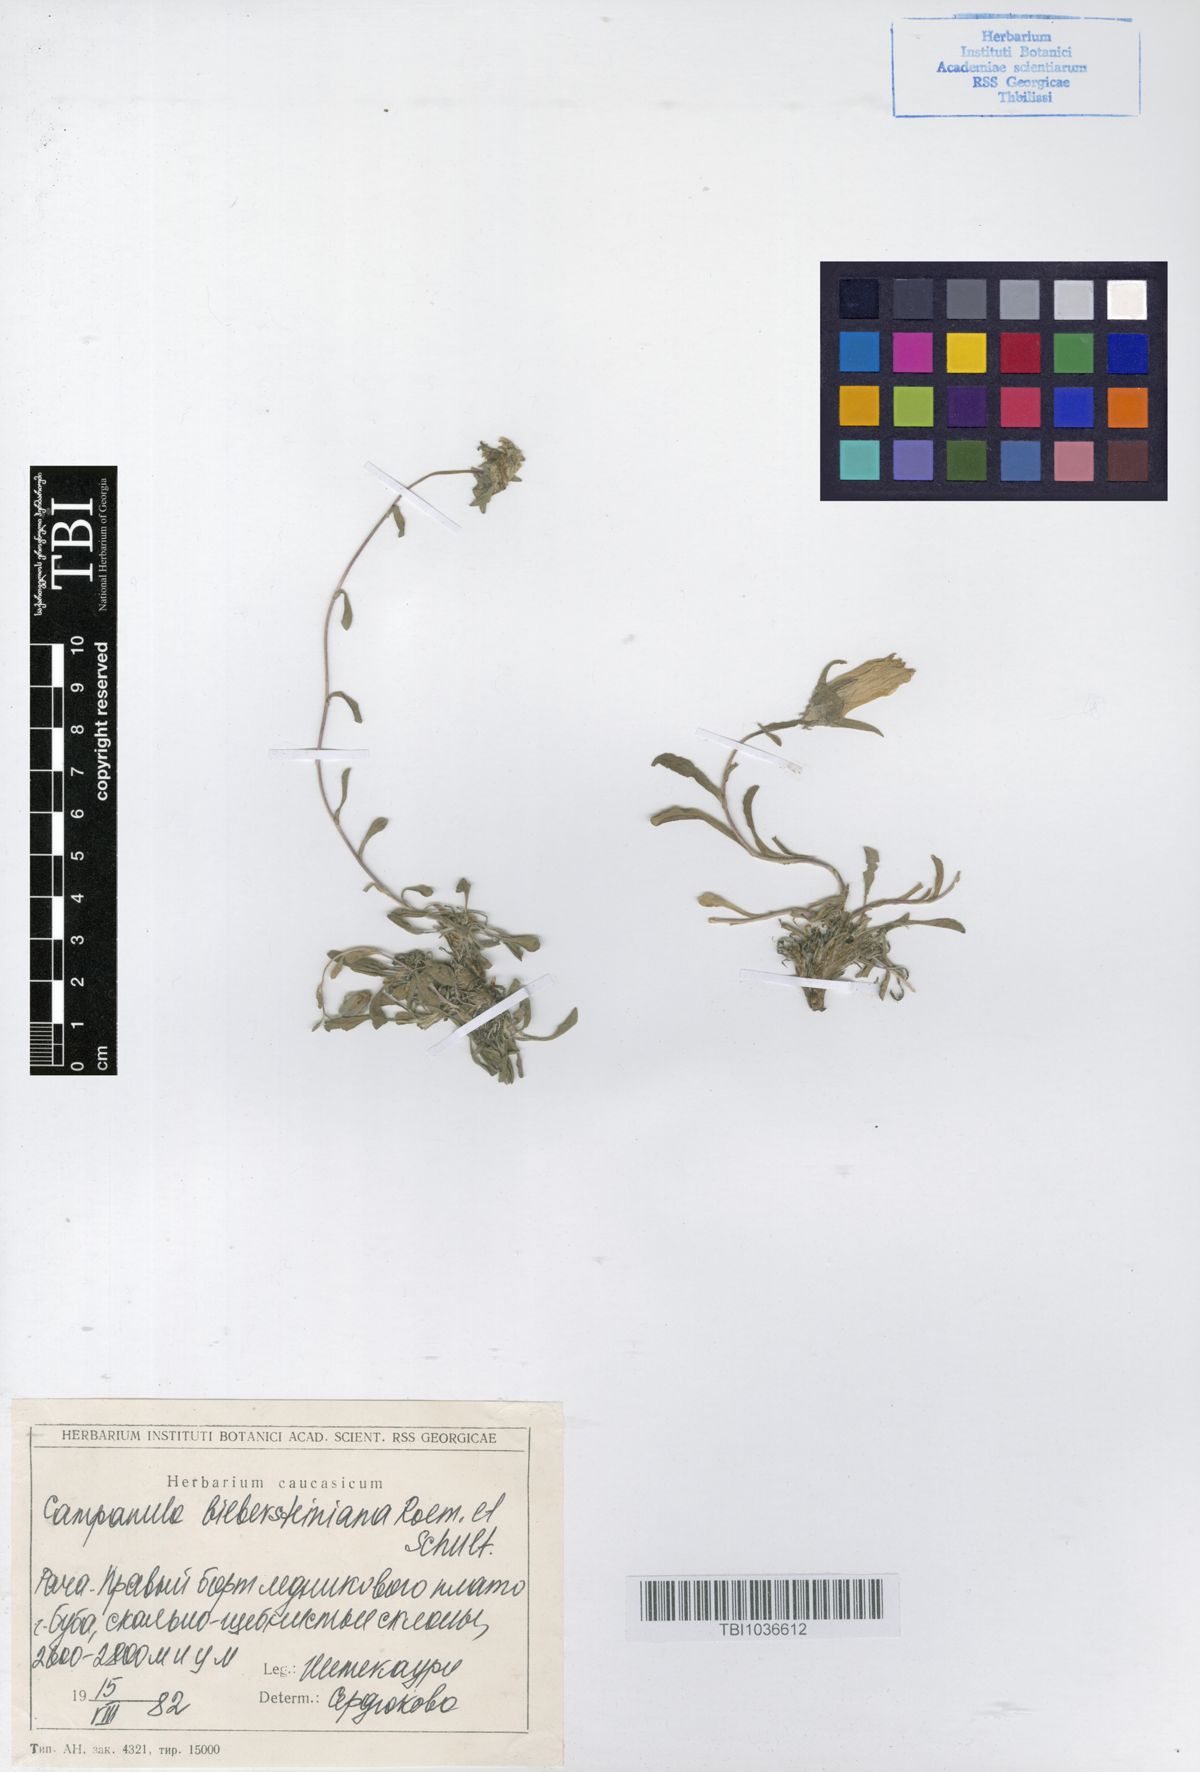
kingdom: Plantae
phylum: Tracheophyta
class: Magnoliopsida
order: Asterales
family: Campanulaceae
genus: Campanula
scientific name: Campanula tridentata
